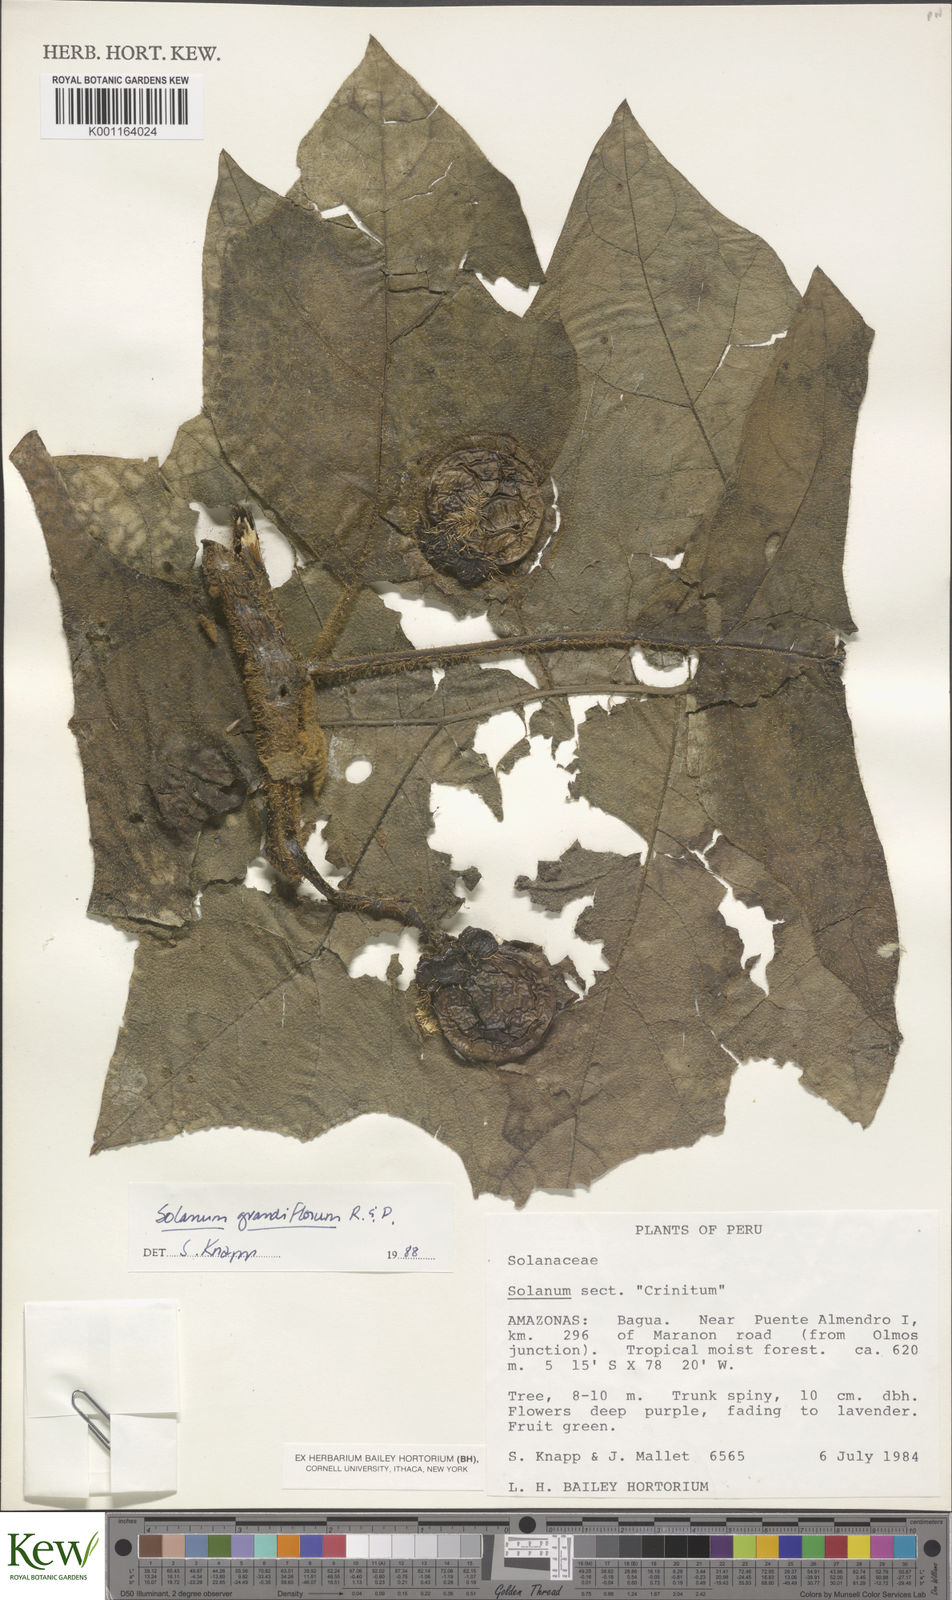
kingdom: Plantae
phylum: Tracheophyta
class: Magnoliopsida
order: Solanales
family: Solanaceae
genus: Solanum
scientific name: Solanum grandiflorum
